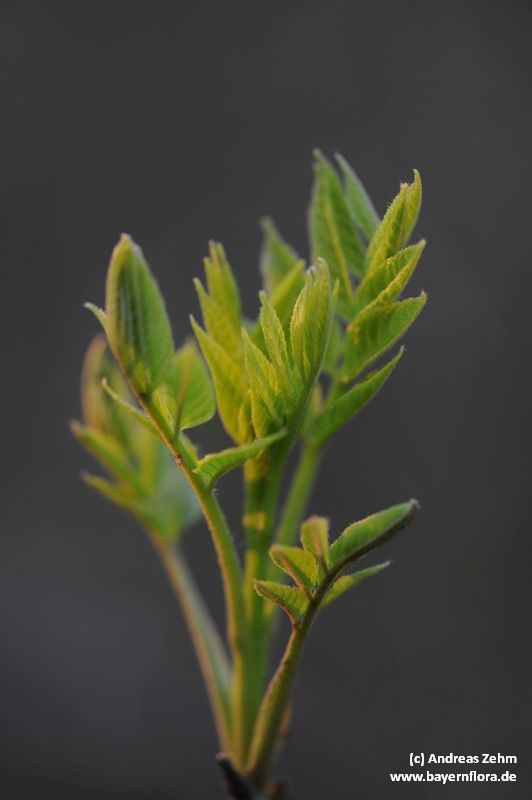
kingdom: Plantae
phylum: Tracheophyta
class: Magnoliopsida
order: Lamiales
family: Oleaceae
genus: Fraxinus
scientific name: Fraxinus excelsior
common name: European ash
